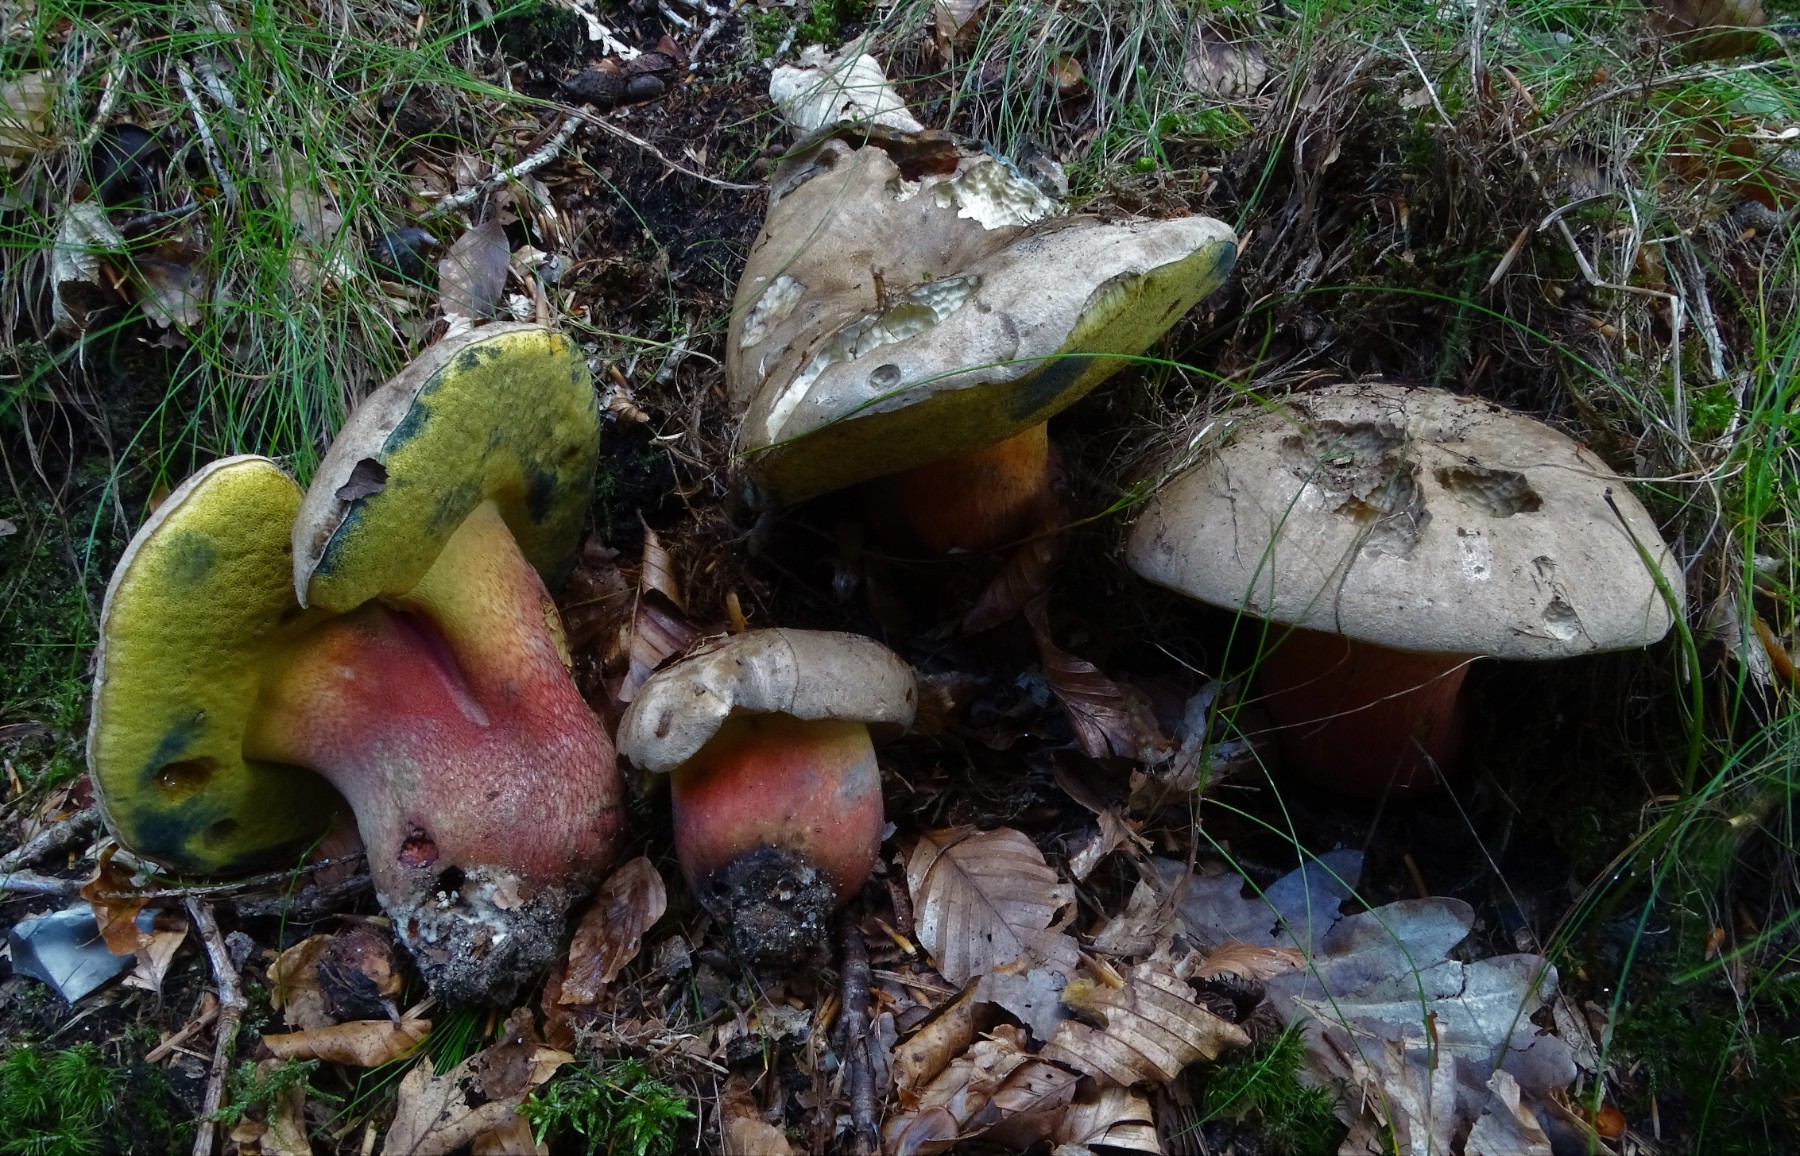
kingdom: Fungi
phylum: Basidiomycota
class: Agaricomycetes
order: Boletales
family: Boletaceae
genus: Caloboletus
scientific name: Caloboletus calopus
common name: skønfodet rørhat
